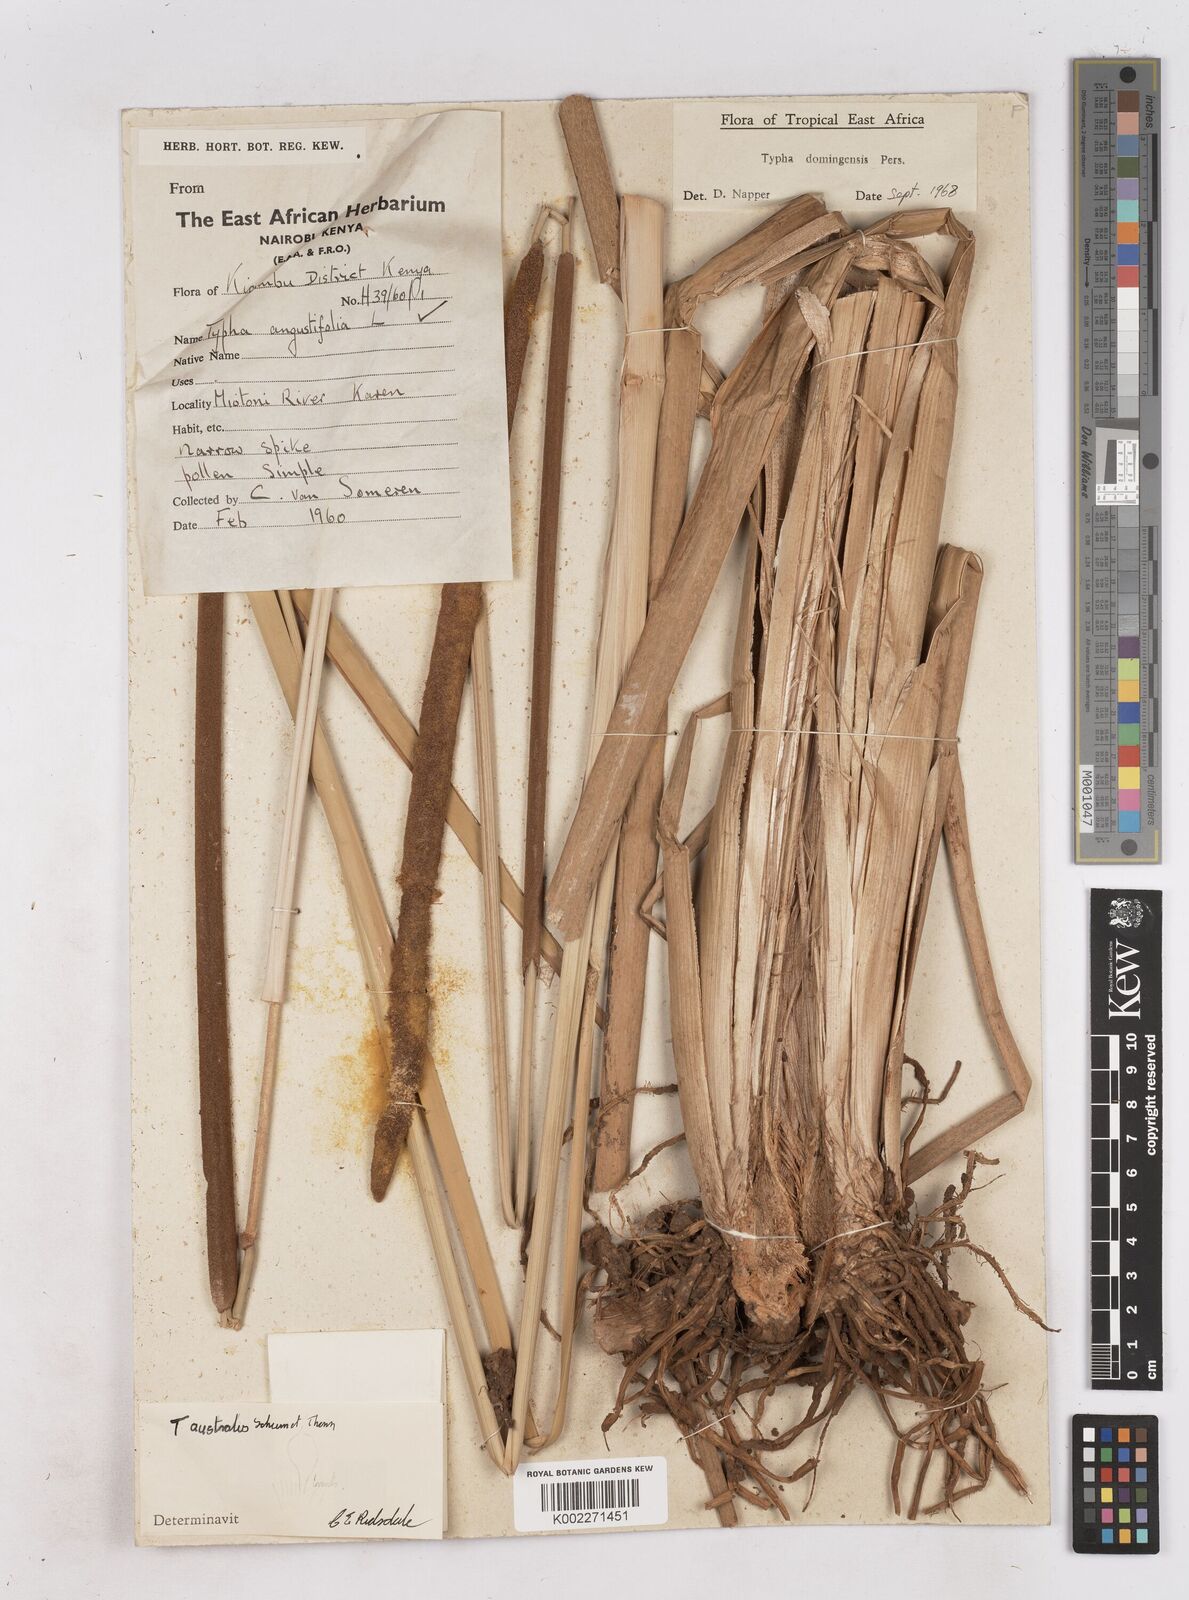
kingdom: Plantae
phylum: Tracheophyta
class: Liliopsida
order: Poales
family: Typhaceae
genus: Typha
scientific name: Typha domingensis
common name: Southern cattail
